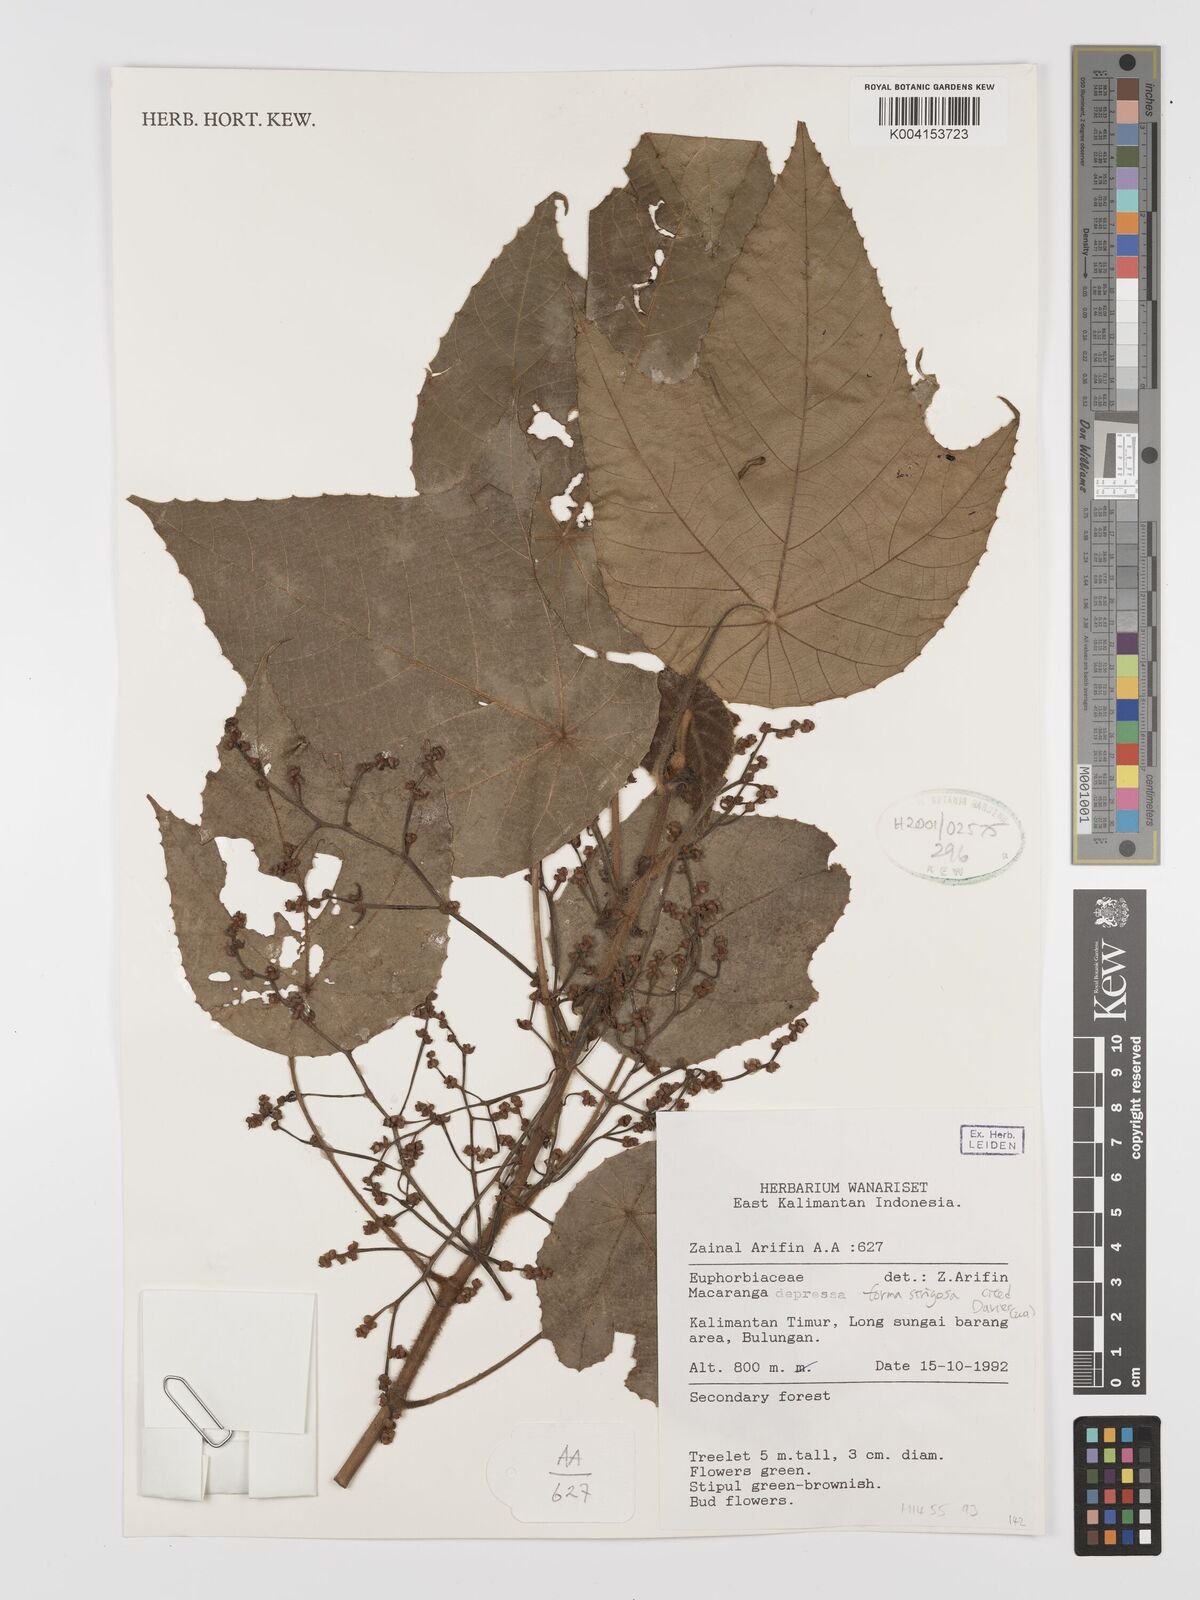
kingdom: Plantae
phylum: Tracheophyta
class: Magnoliopsida
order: Malpighiales
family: Euphorbiaceae
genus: Macaranga
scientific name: Macaranga depressa
